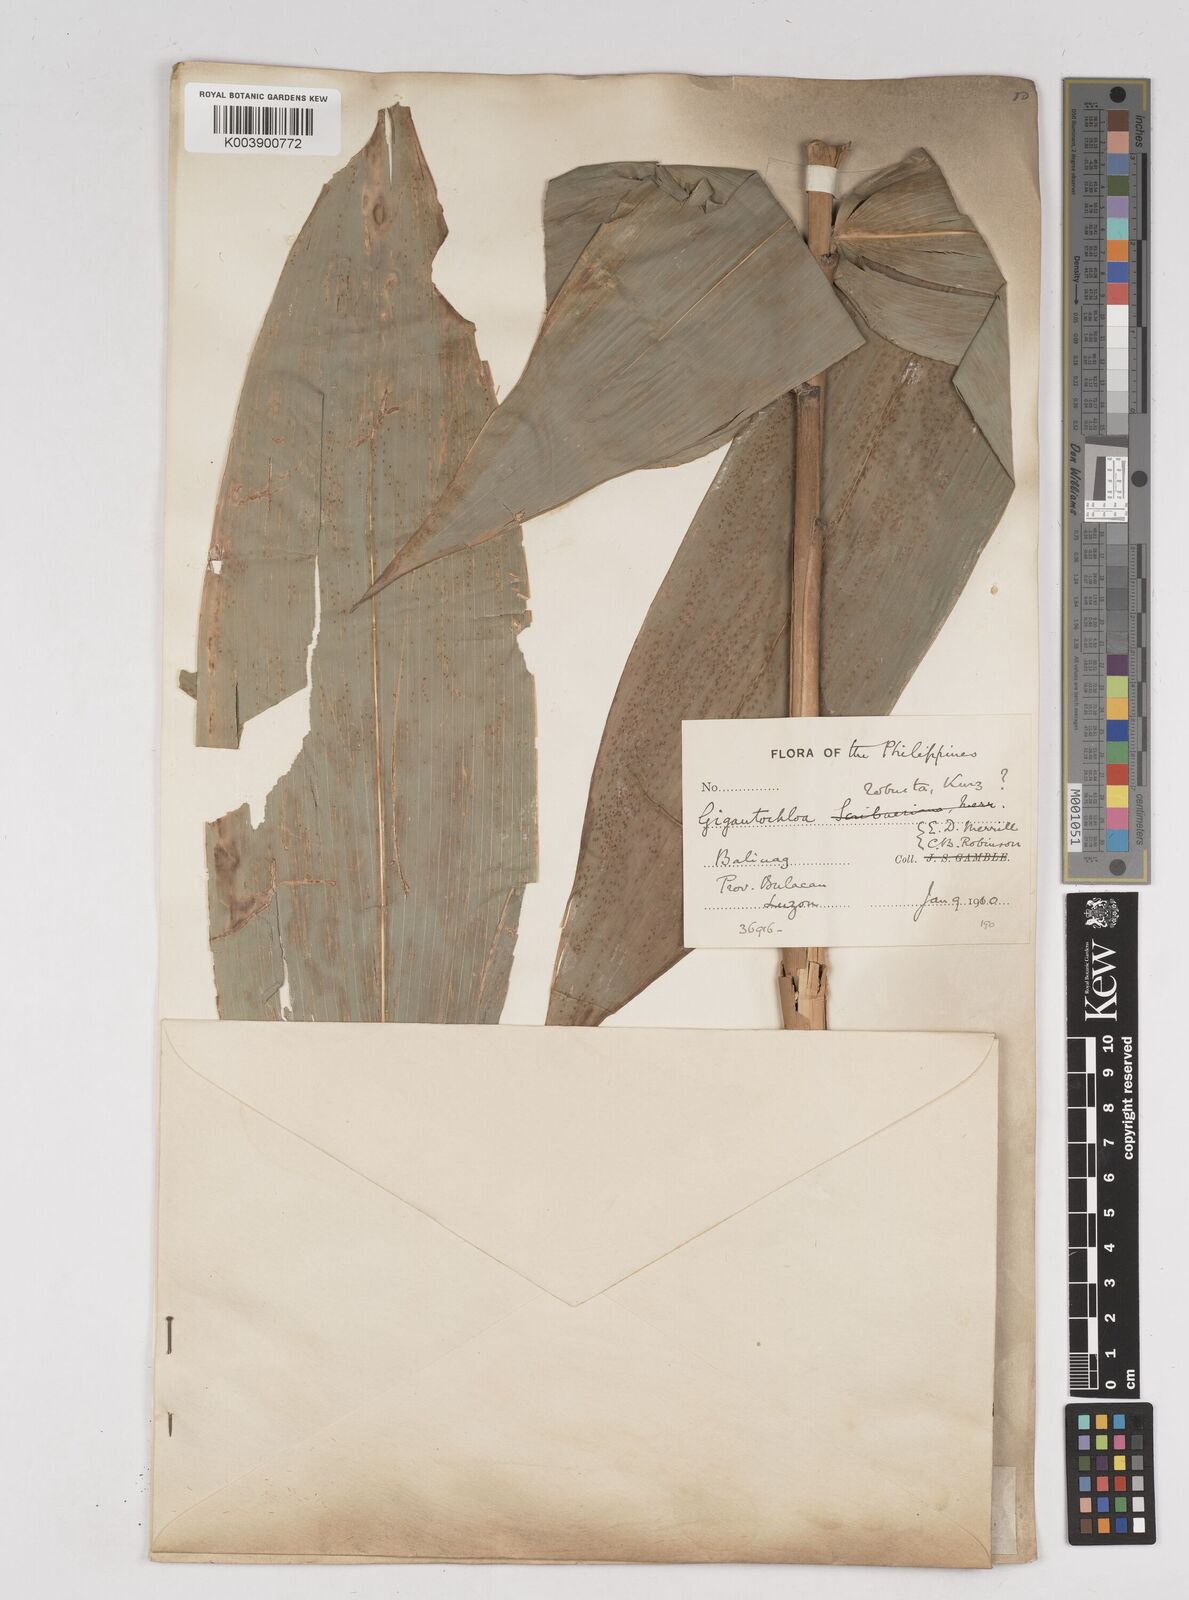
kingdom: Plantae
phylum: Tracheophyta
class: Liliopsida
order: Poales
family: Poaceae
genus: Gigantochloa
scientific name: Gigantochloa levis
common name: Smooth-shoot gigantochloa
